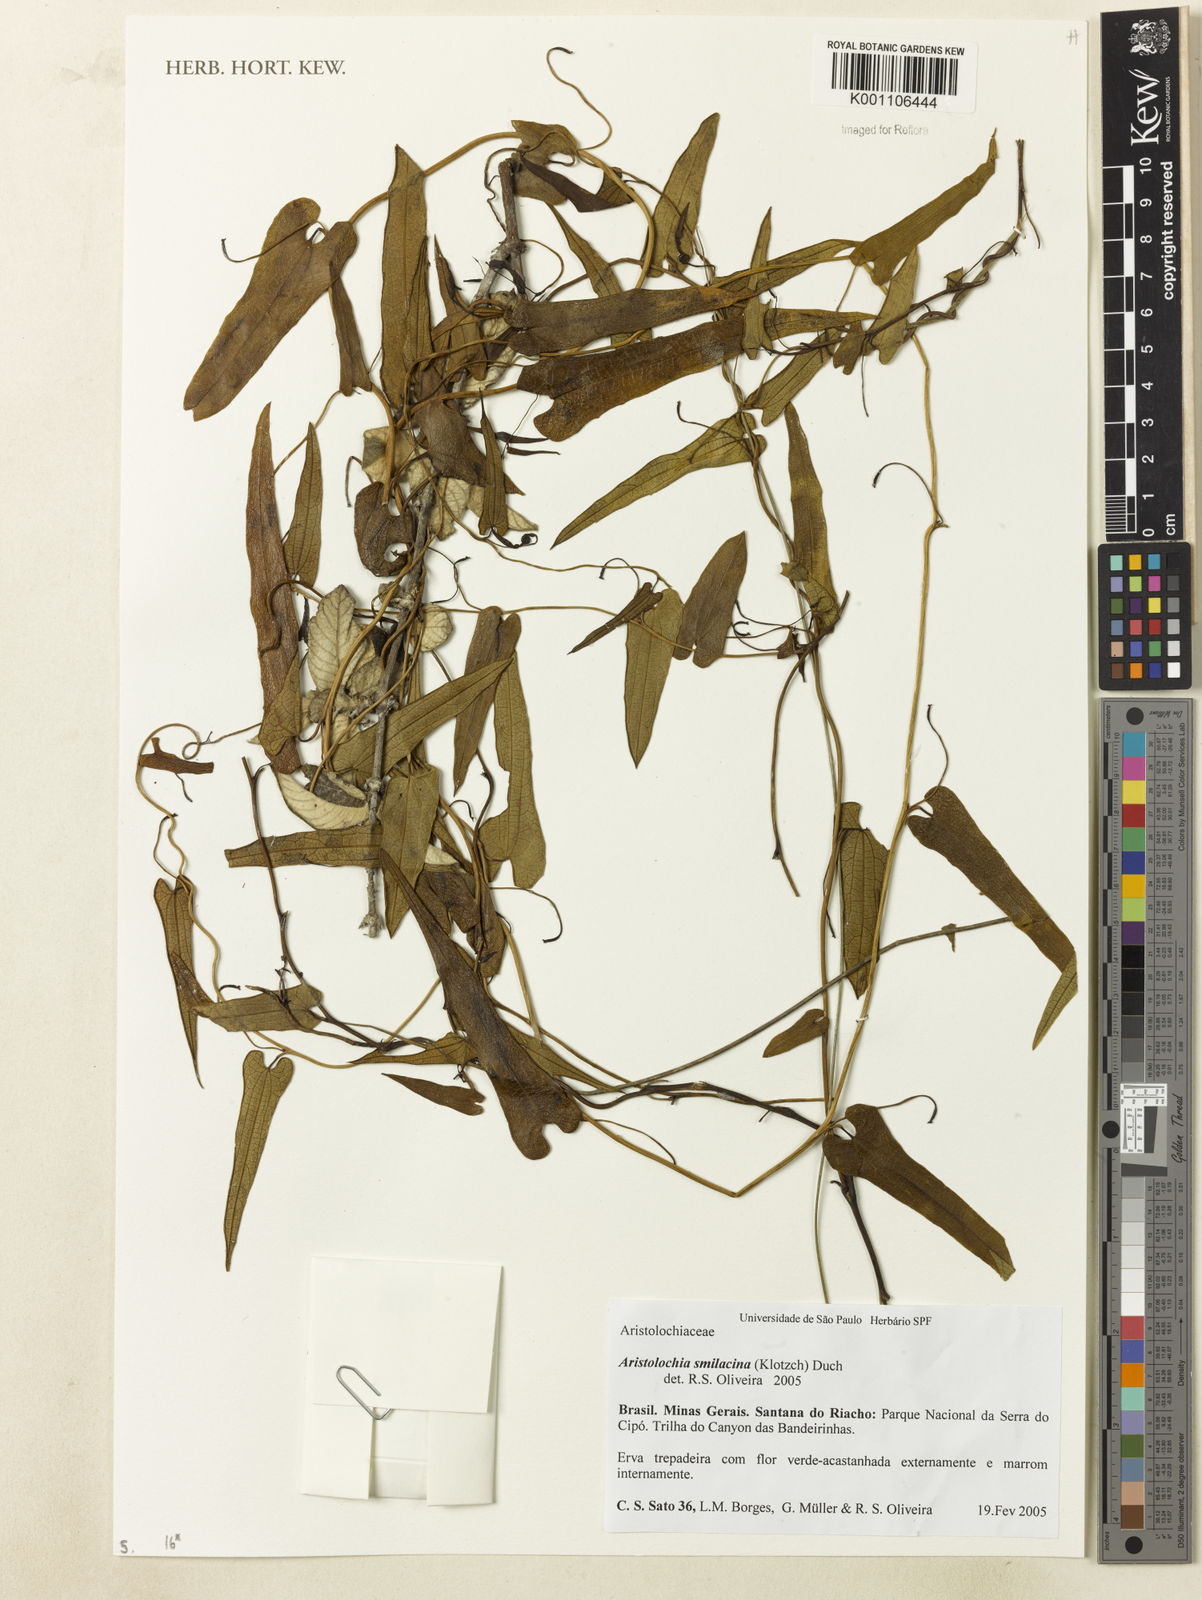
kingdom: Plantae
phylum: Tracheophyta
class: Magnoliopsida
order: Piperales
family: Aristolochiaceae
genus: Aristolochia
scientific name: Aristolochia smilacina
